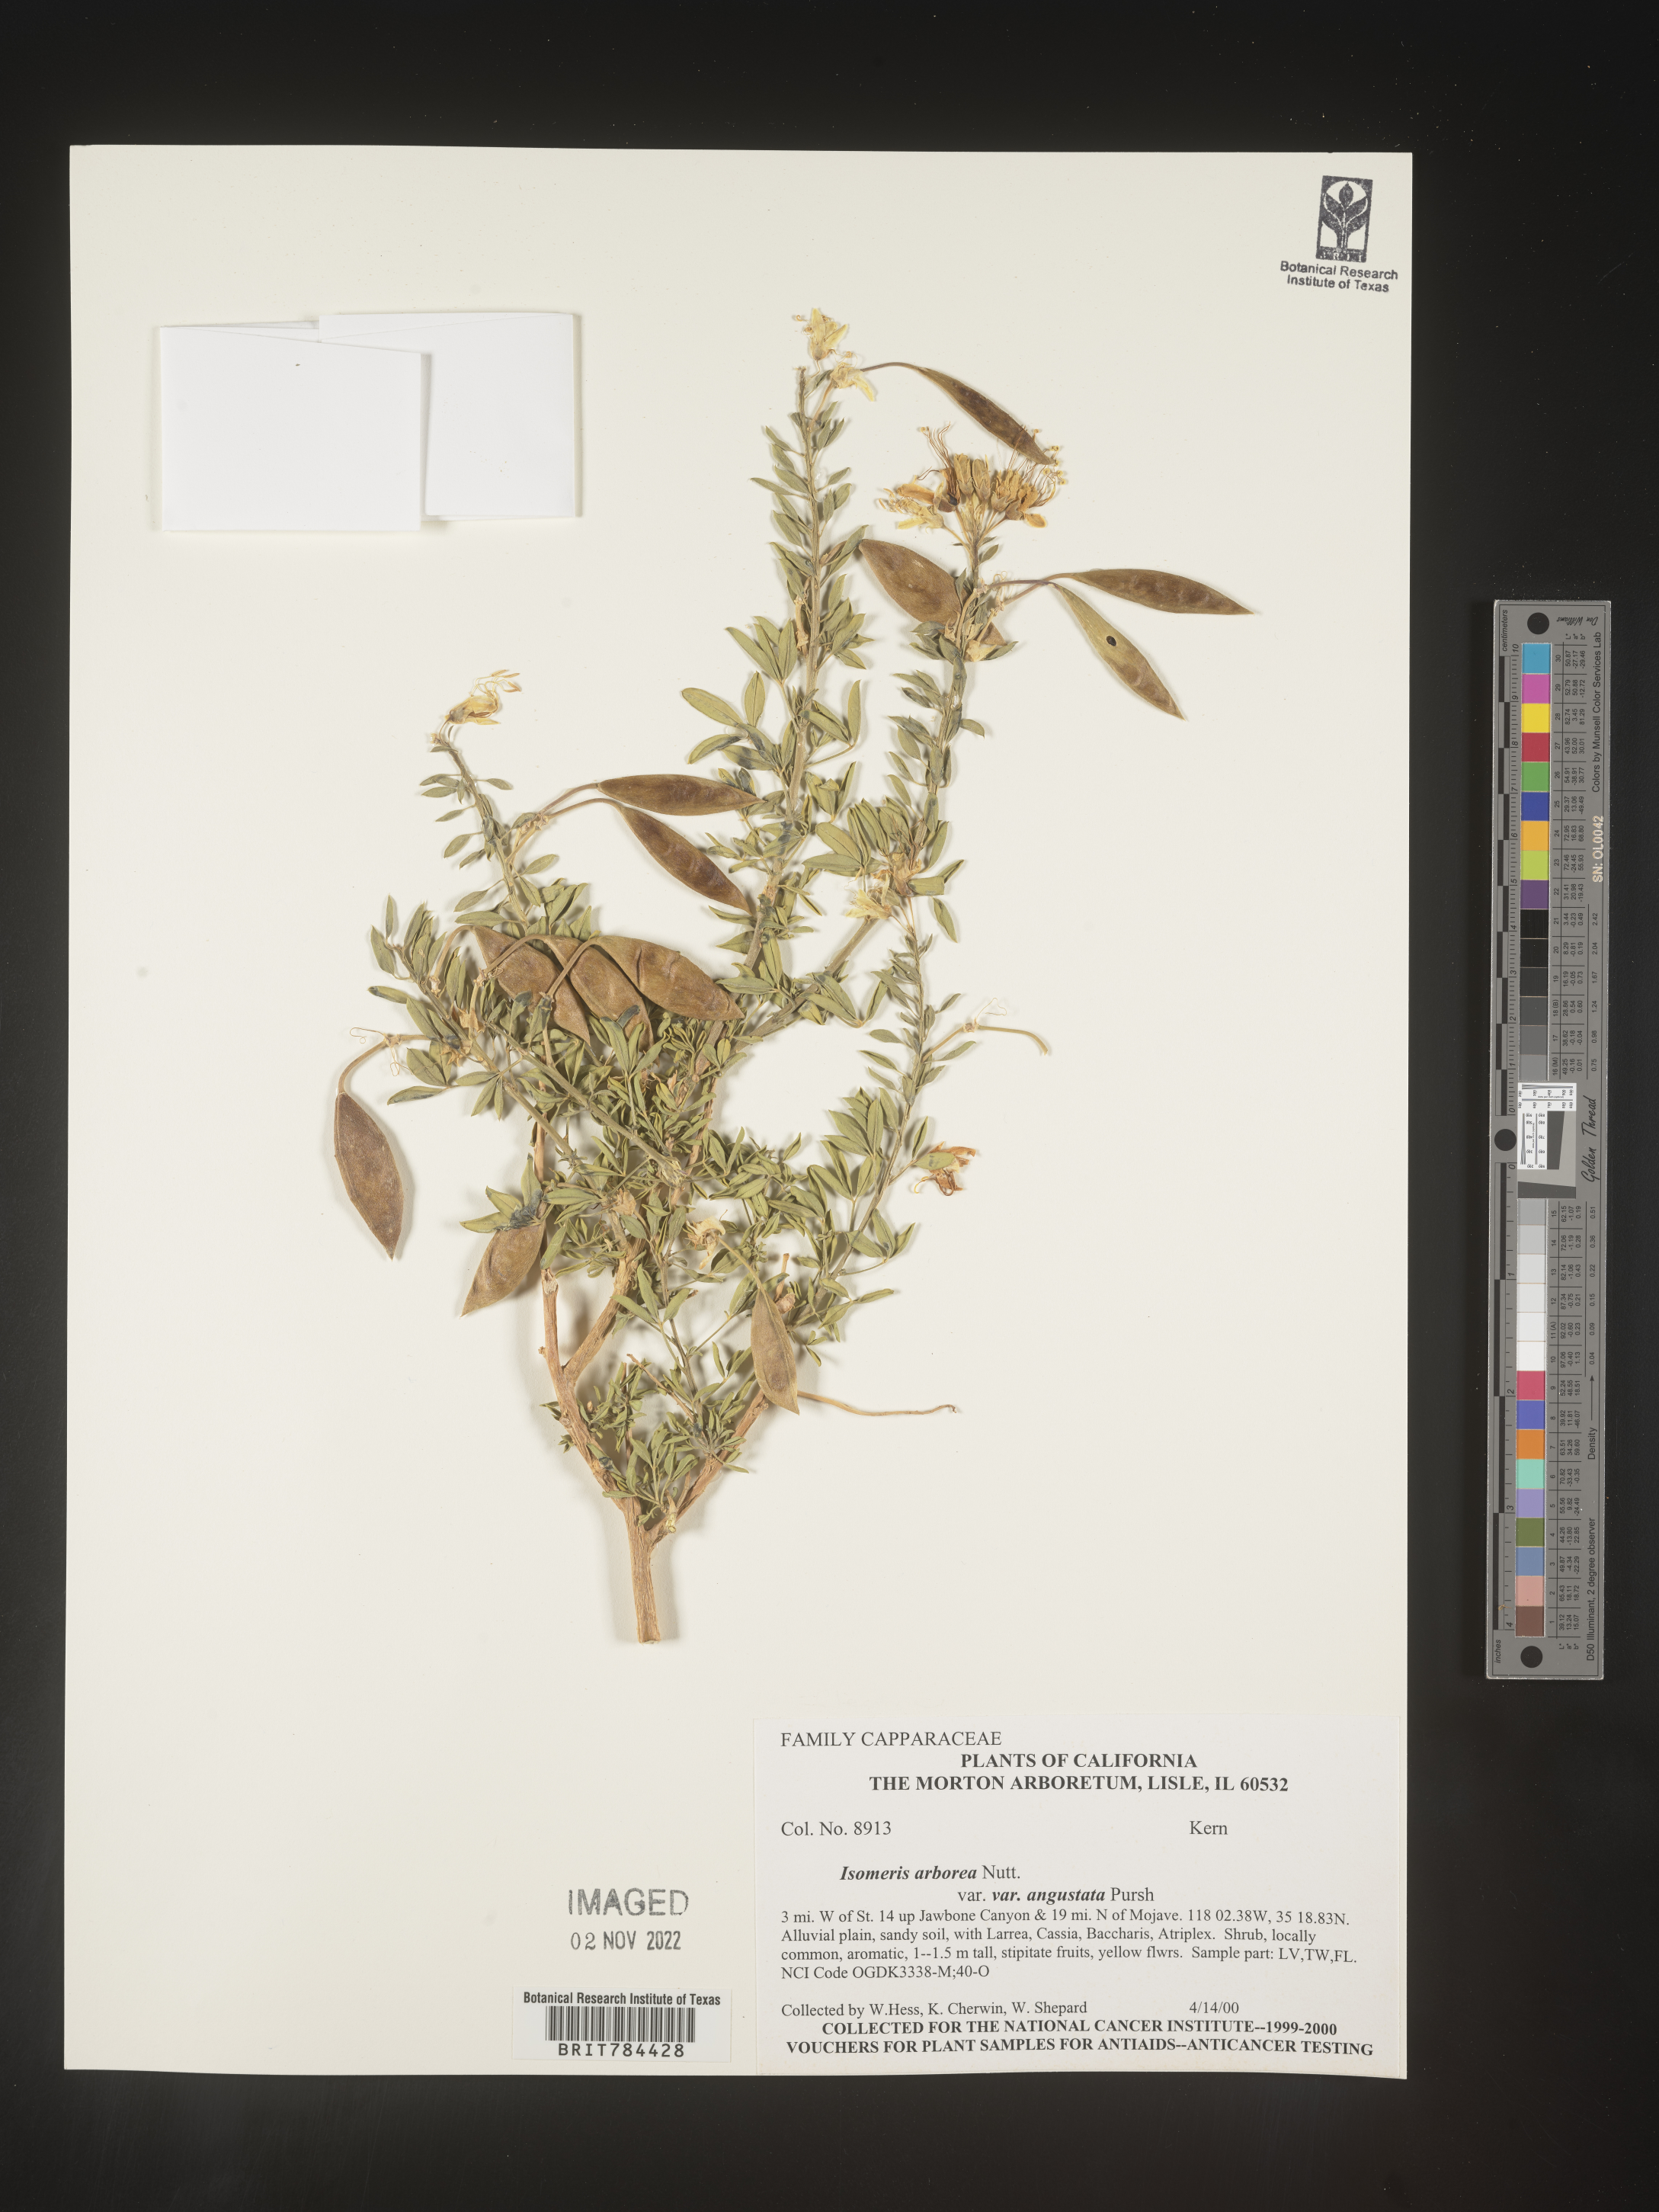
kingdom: Animalia
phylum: Arthropoda
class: Insecta
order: Hymenoptera
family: Ichneumonidae
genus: Isomeris
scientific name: Isomeris
